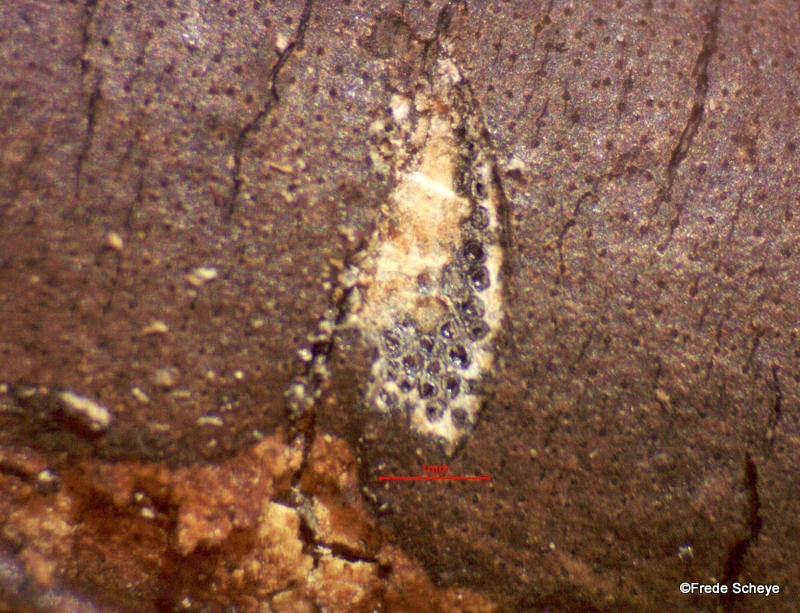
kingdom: Fungi
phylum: Ascomycota
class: Sordariomycetes
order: Xylariales
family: Diatrypaceae
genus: Diatrype
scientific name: Diatrype decorticata
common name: barksprænger-kulskorpe
